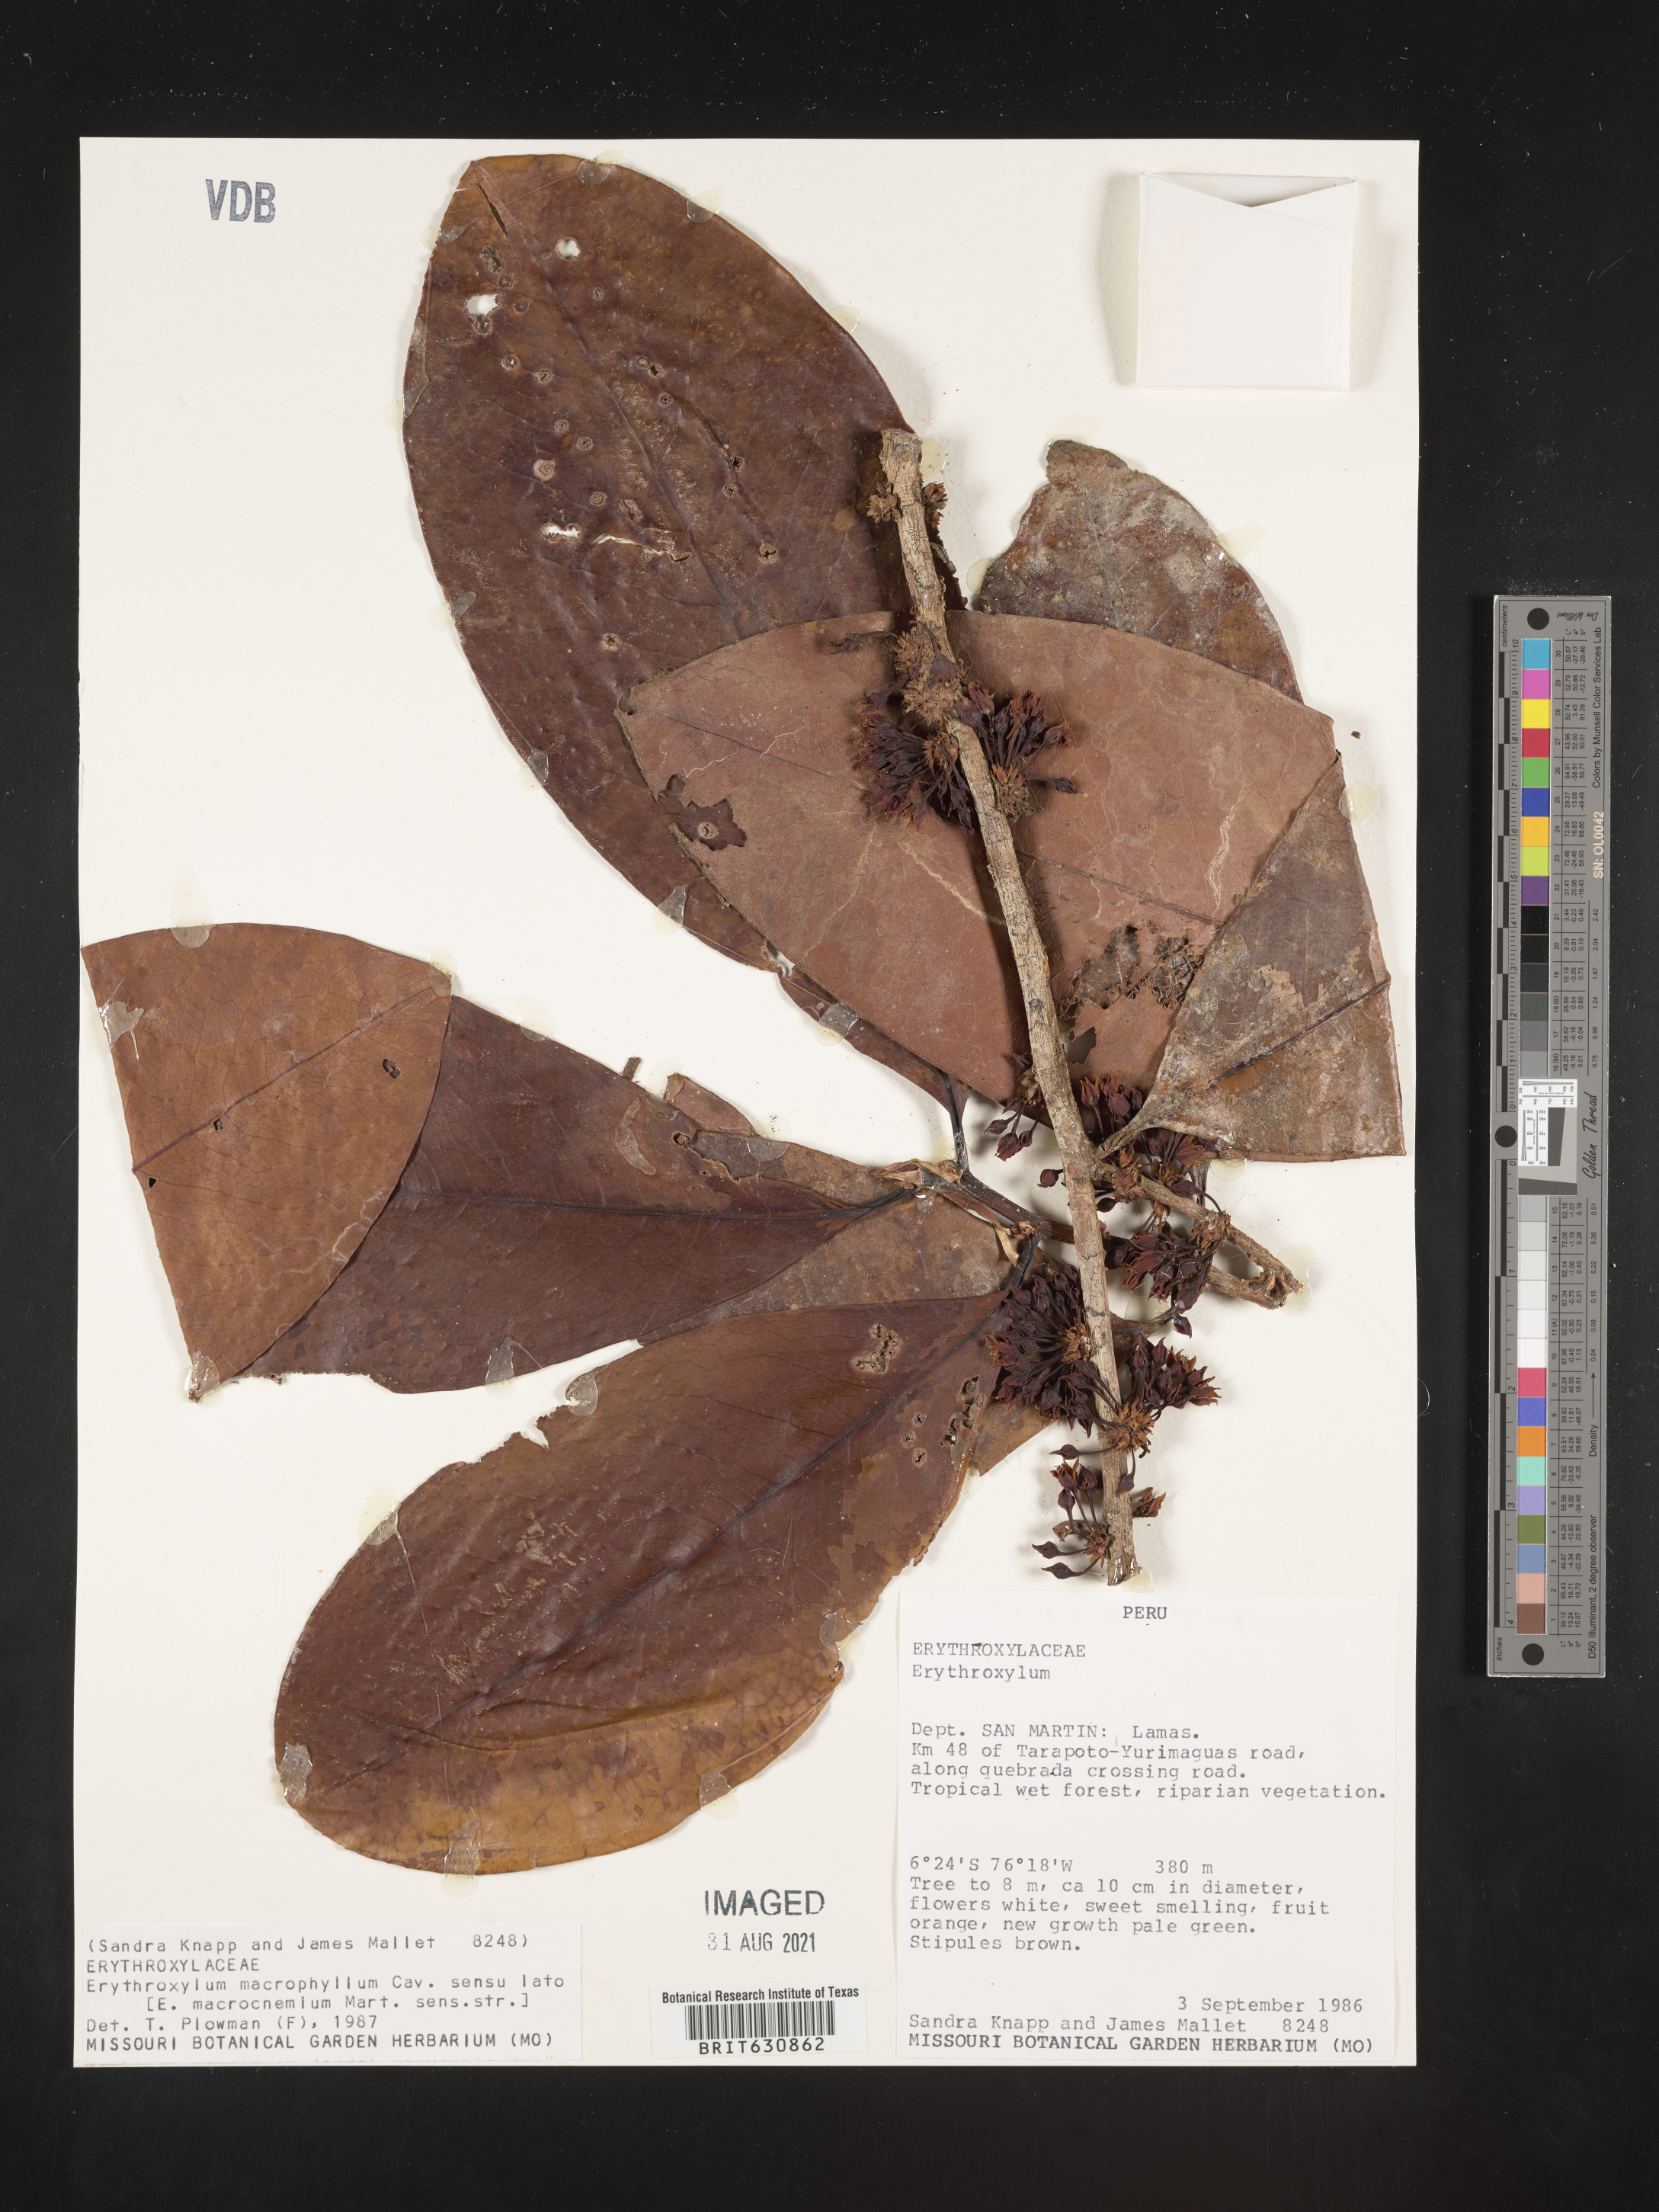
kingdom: Plantae
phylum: Tracheophyta
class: Magnoliopsida
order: Malpighiales
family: Erythroxylaceae
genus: Erythroxylum
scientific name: Erythroxylum
